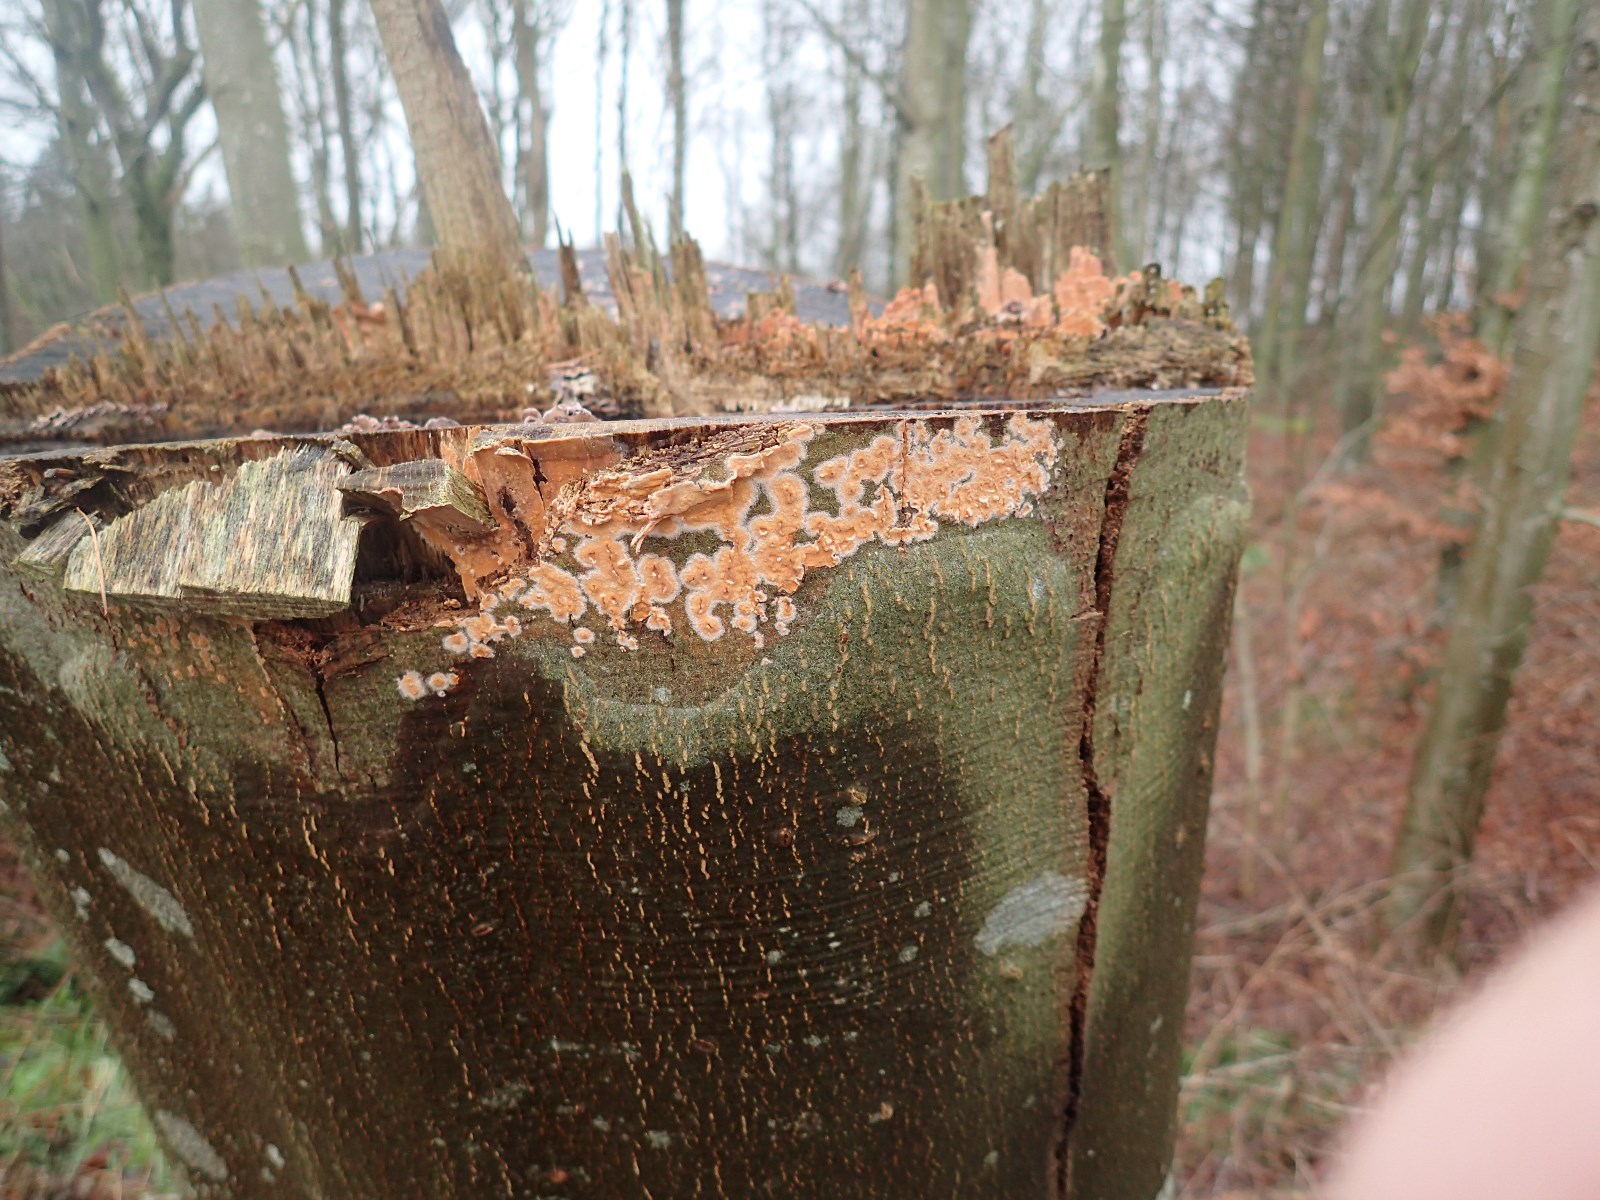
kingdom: Fungi
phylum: Basidiomycota
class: Agaricomycetes
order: Russulales
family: Peniophoraceae
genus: Peniophora
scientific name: Peniophora incarnata
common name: laksefarvet voksskind
